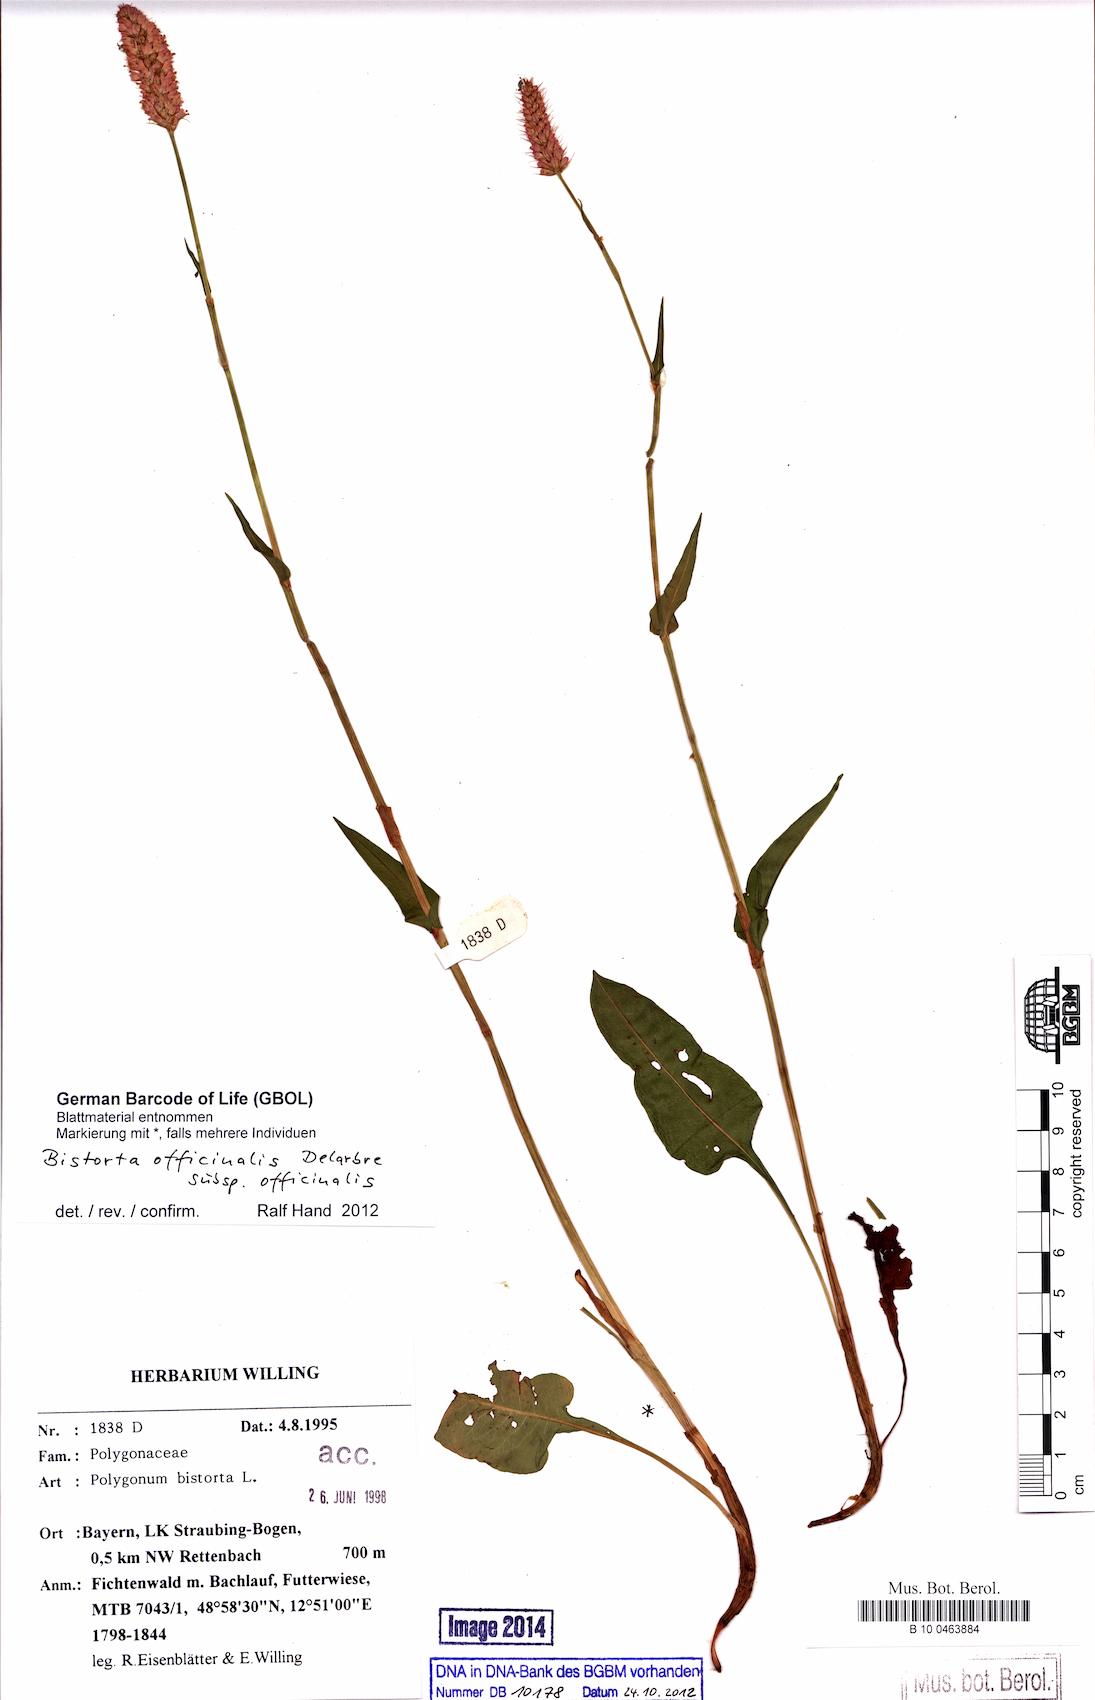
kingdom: Plantae
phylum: Tracheophyta
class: Magnoliopsida
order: Caryophyllales
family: Polygonaceae
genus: Bistorta
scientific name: Bistorta officinalis
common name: Common bistort
